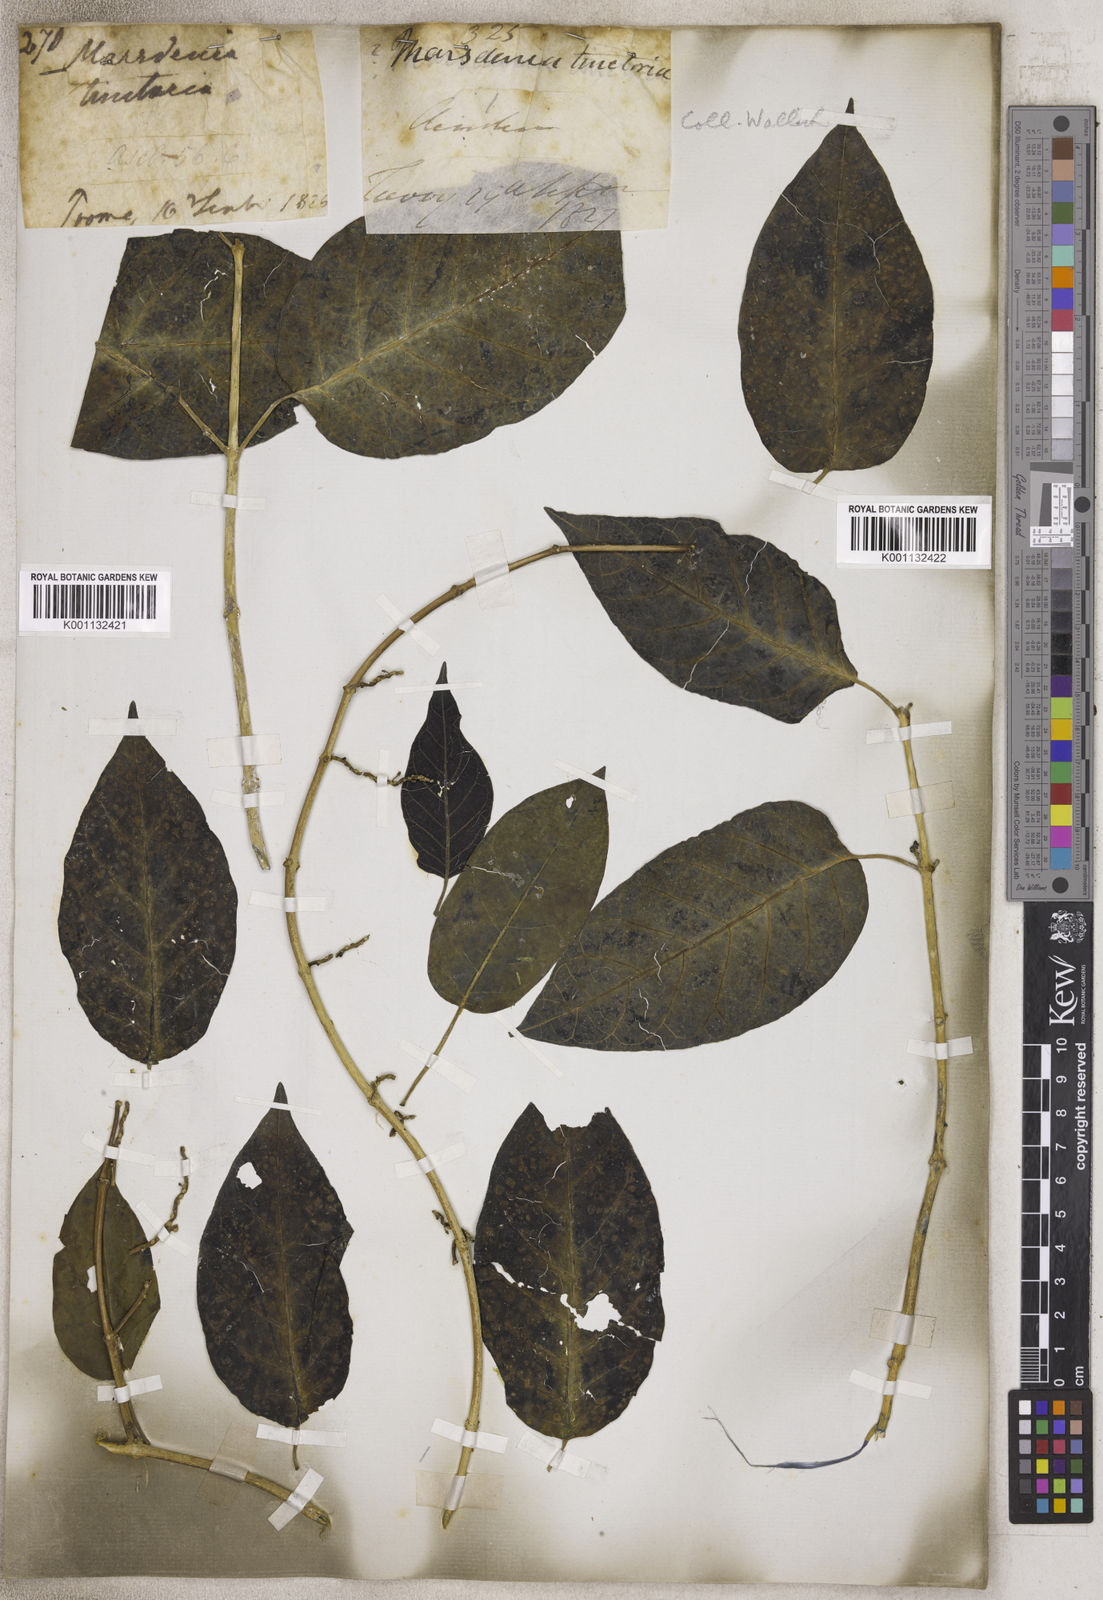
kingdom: Plantae
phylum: Tracheophyta
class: Magnoliopsida
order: Gentianales
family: Apocynaceae
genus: Marsdenia
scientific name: Marsdenia
